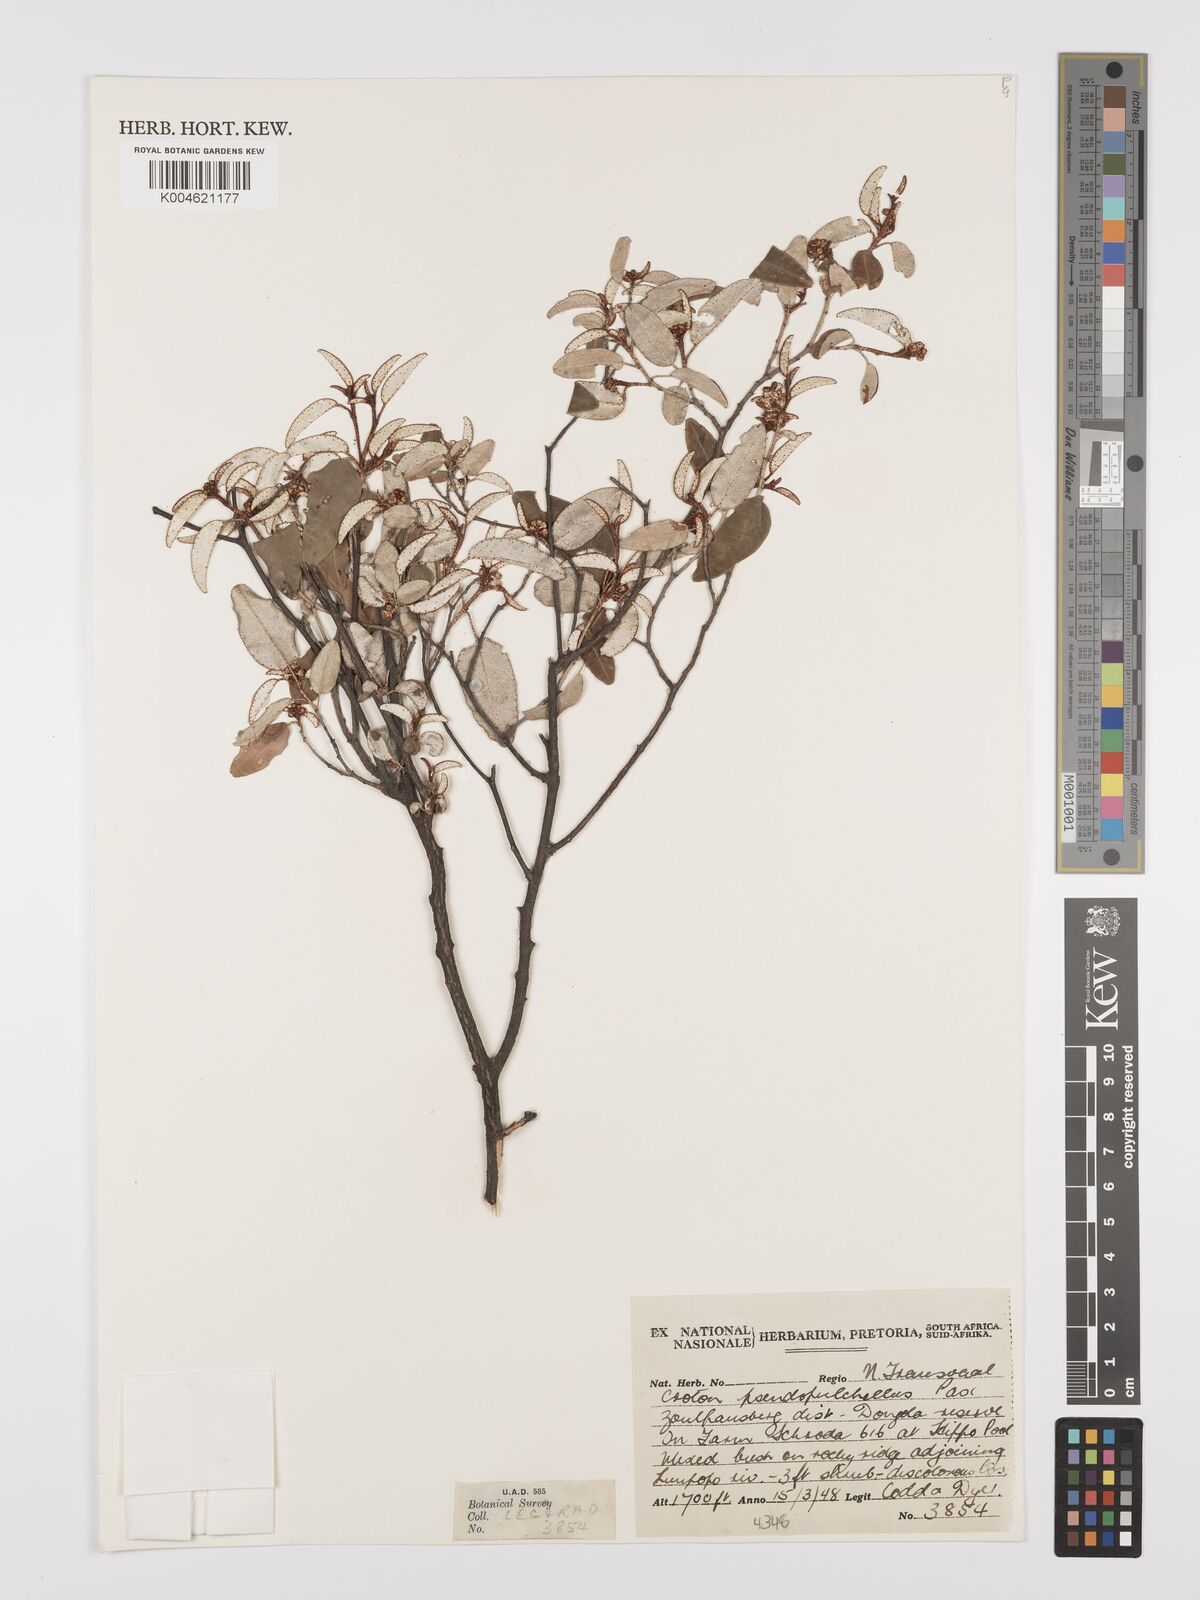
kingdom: Plantae
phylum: Tracheophyta
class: Magnoliopsida
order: Malpighiales
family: Euphorbiaceae
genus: Croton
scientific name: Croton pseudopulchellus
